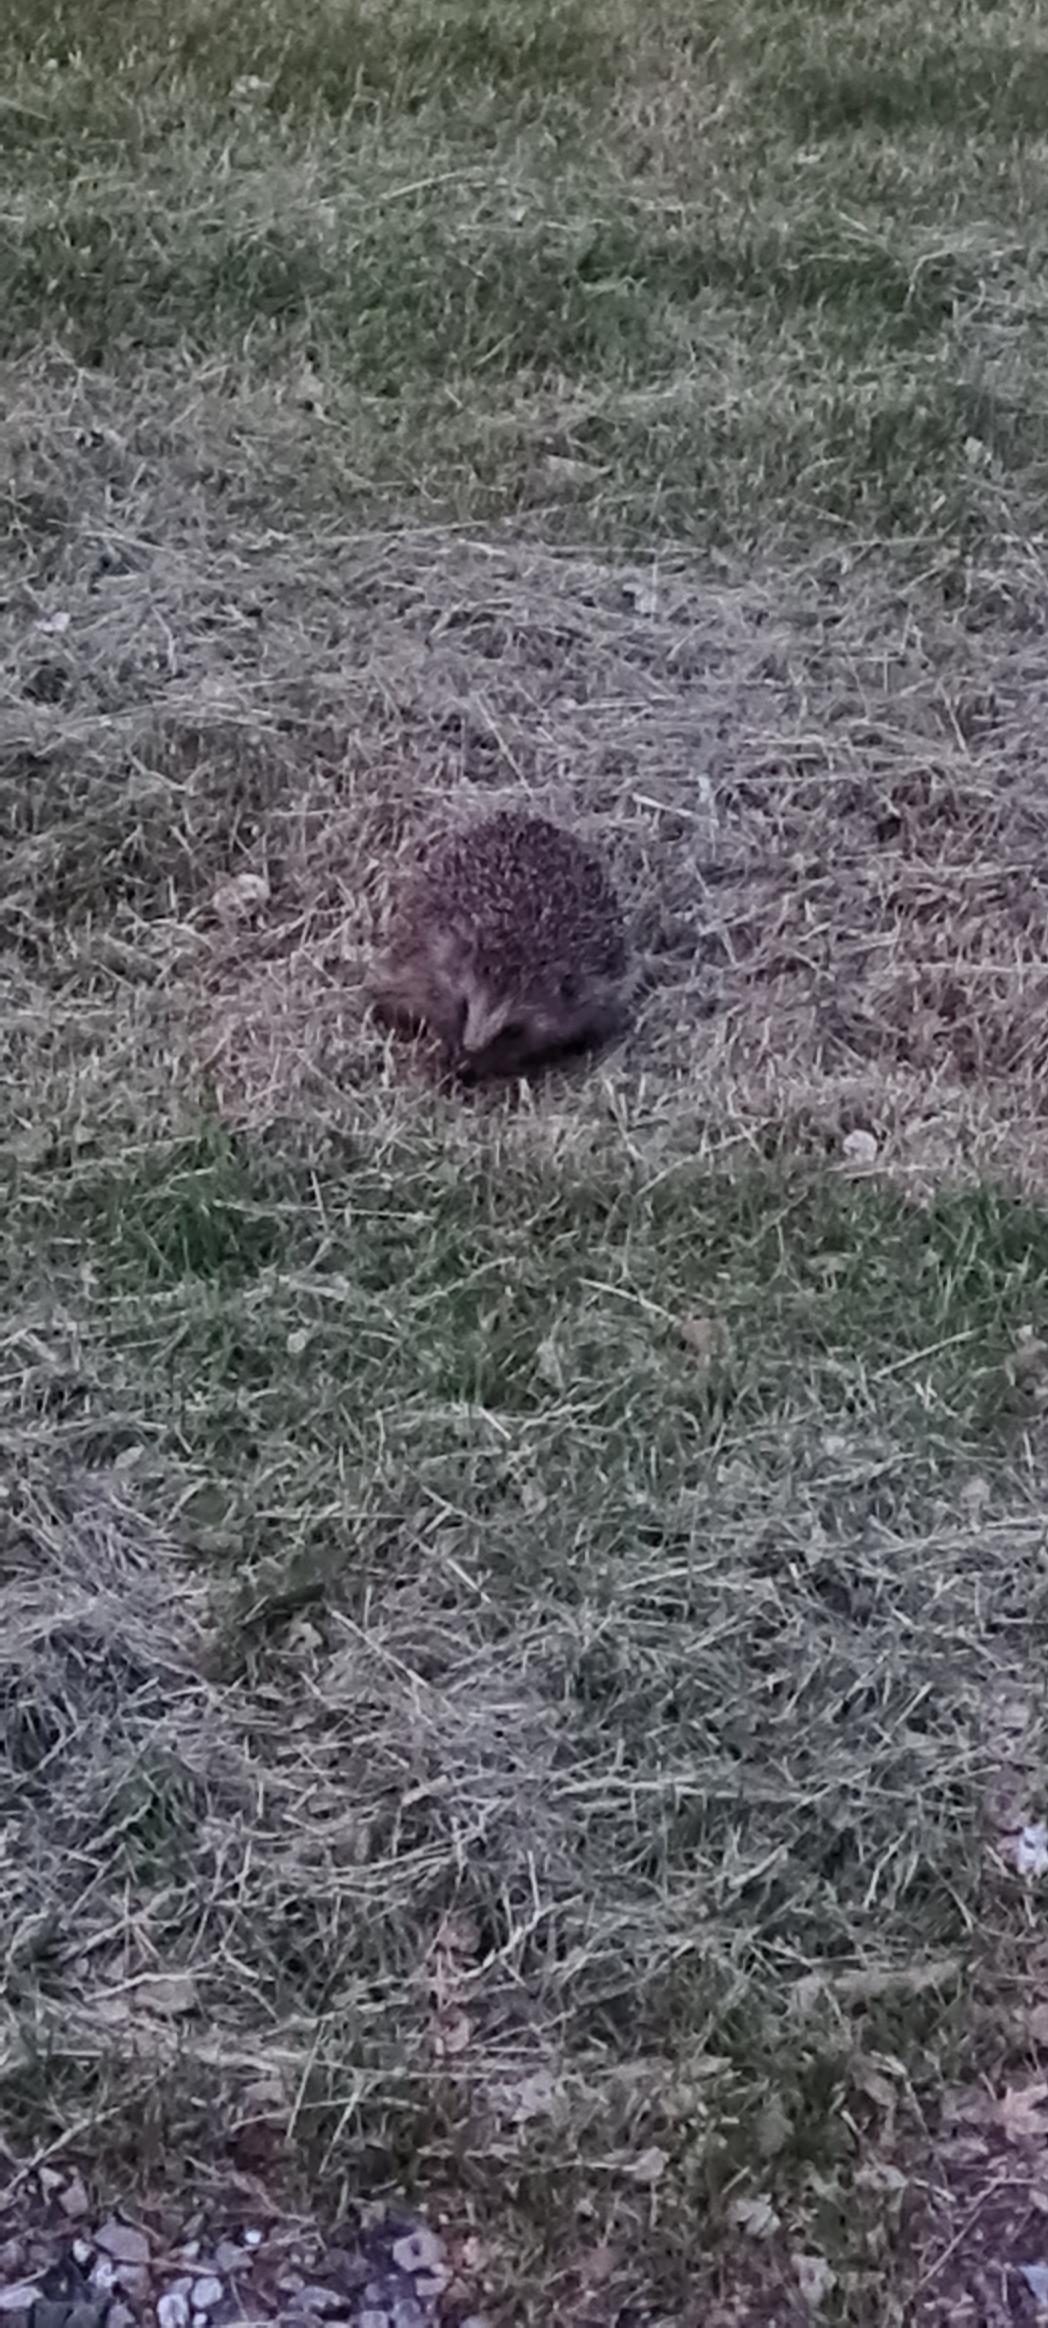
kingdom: Animalia
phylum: Chordata
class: Mammalia
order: Erinaceomorpha
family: Erinaceidae
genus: Erinaceus
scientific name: Erinaceus europaeus
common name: Pindsvin
